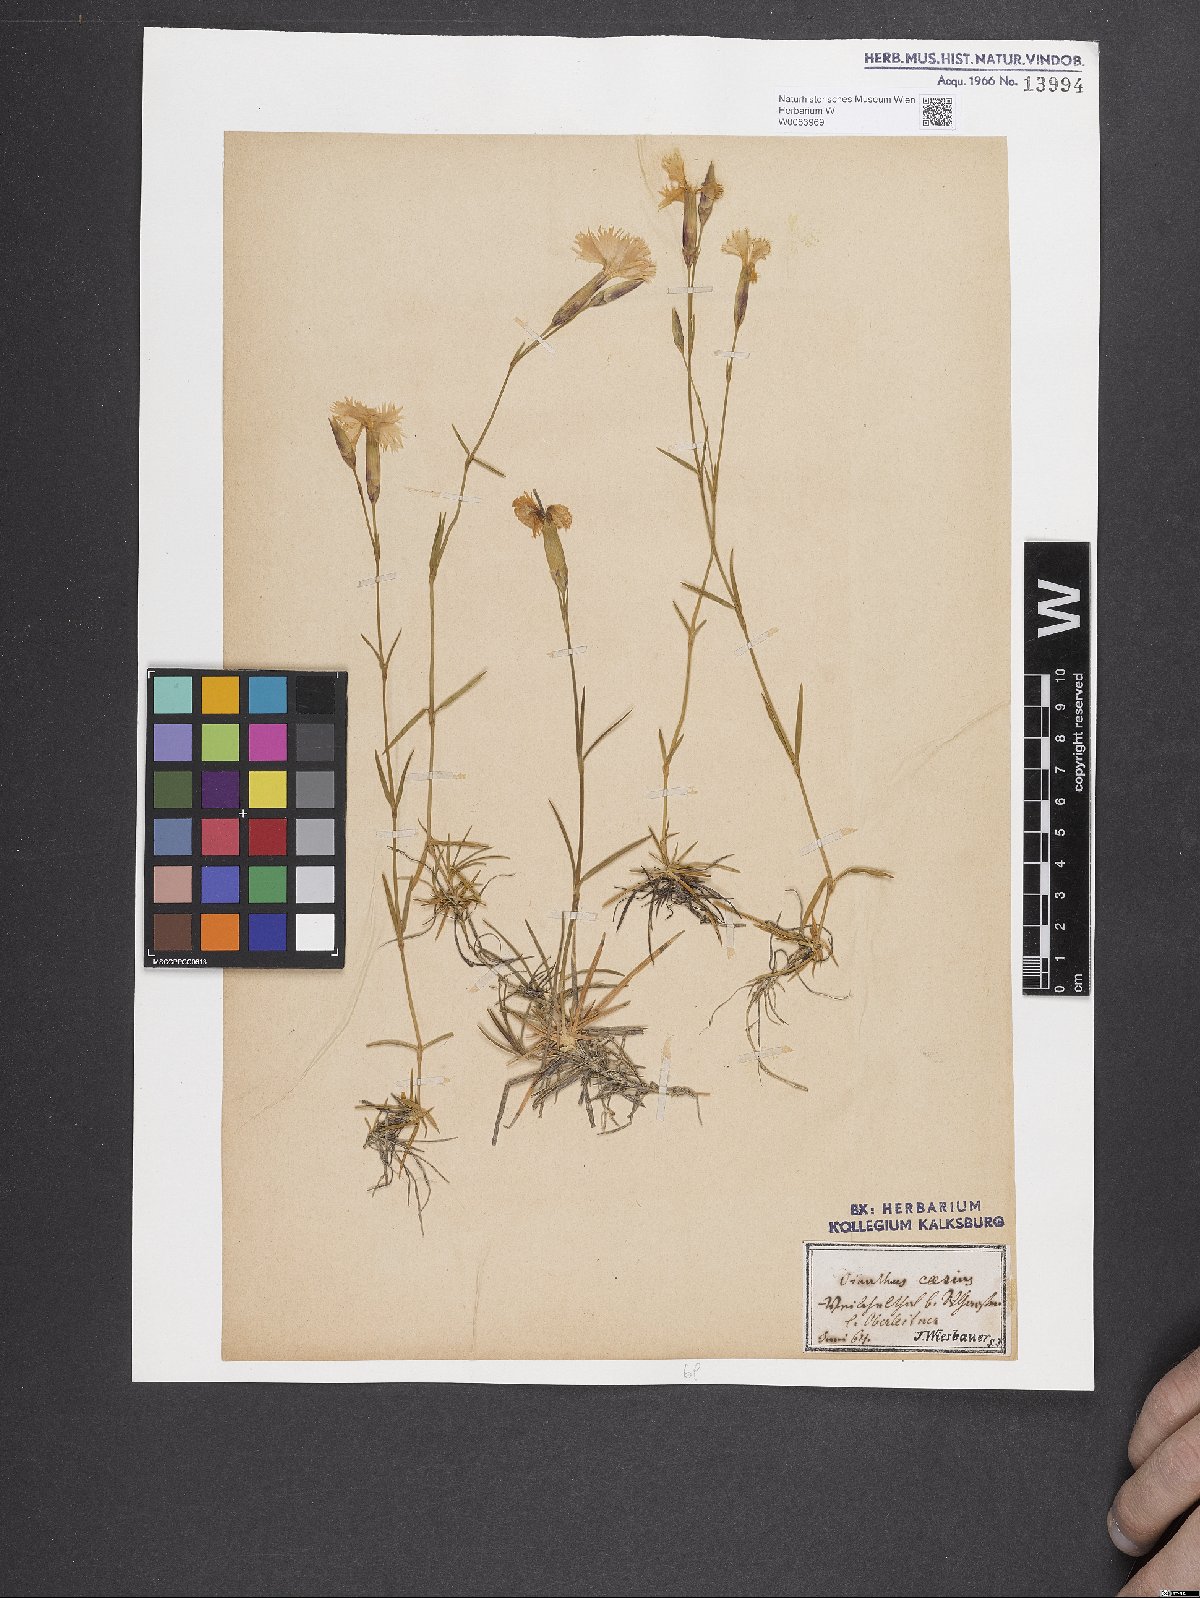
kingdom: Plantae
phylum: Tracheophyta
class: Magnoliopsida
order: Caryophyllales
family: Caryophyllaceae
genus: Dianthus
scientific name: Dianthus gratianopolitanus
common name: Cheddar pink
